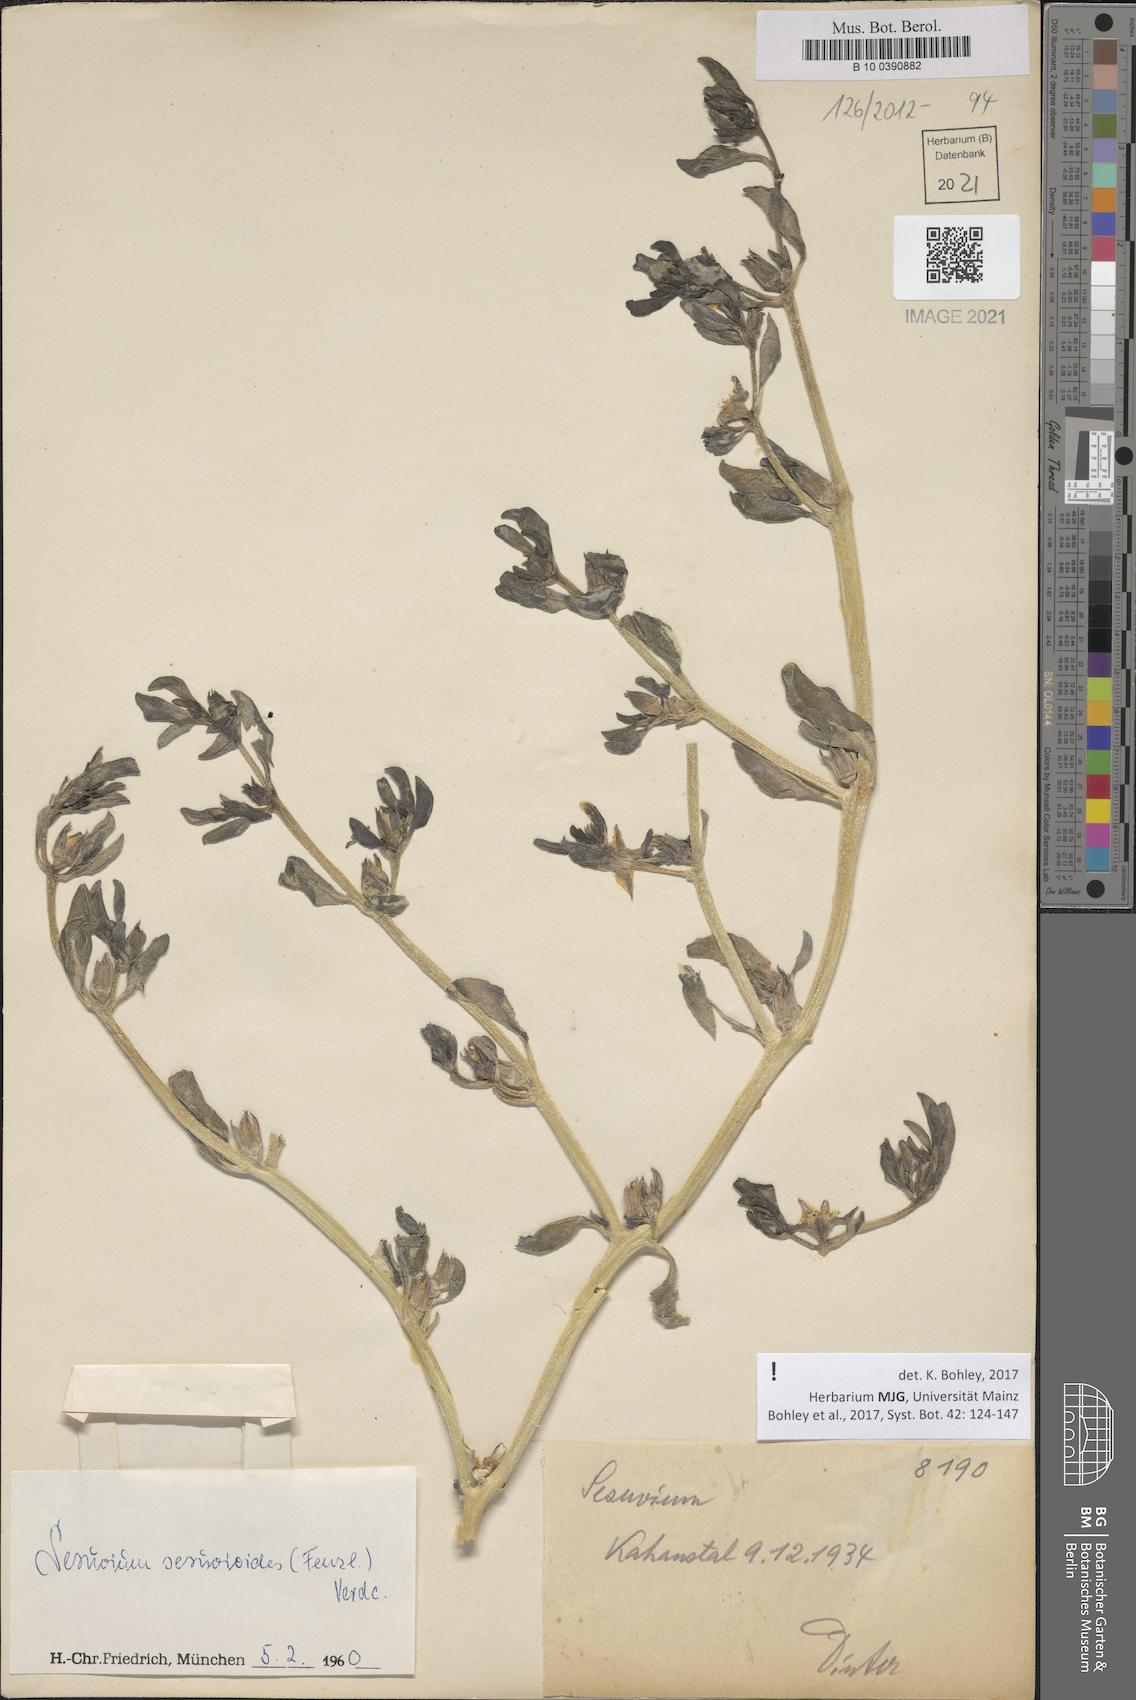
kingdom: Plantae
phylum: Tracheophyta
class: Magnoliopsida
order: Caryophyllales
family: Aizoaceae
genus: Sesuvium
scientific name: Sesuvium sesuvioides
